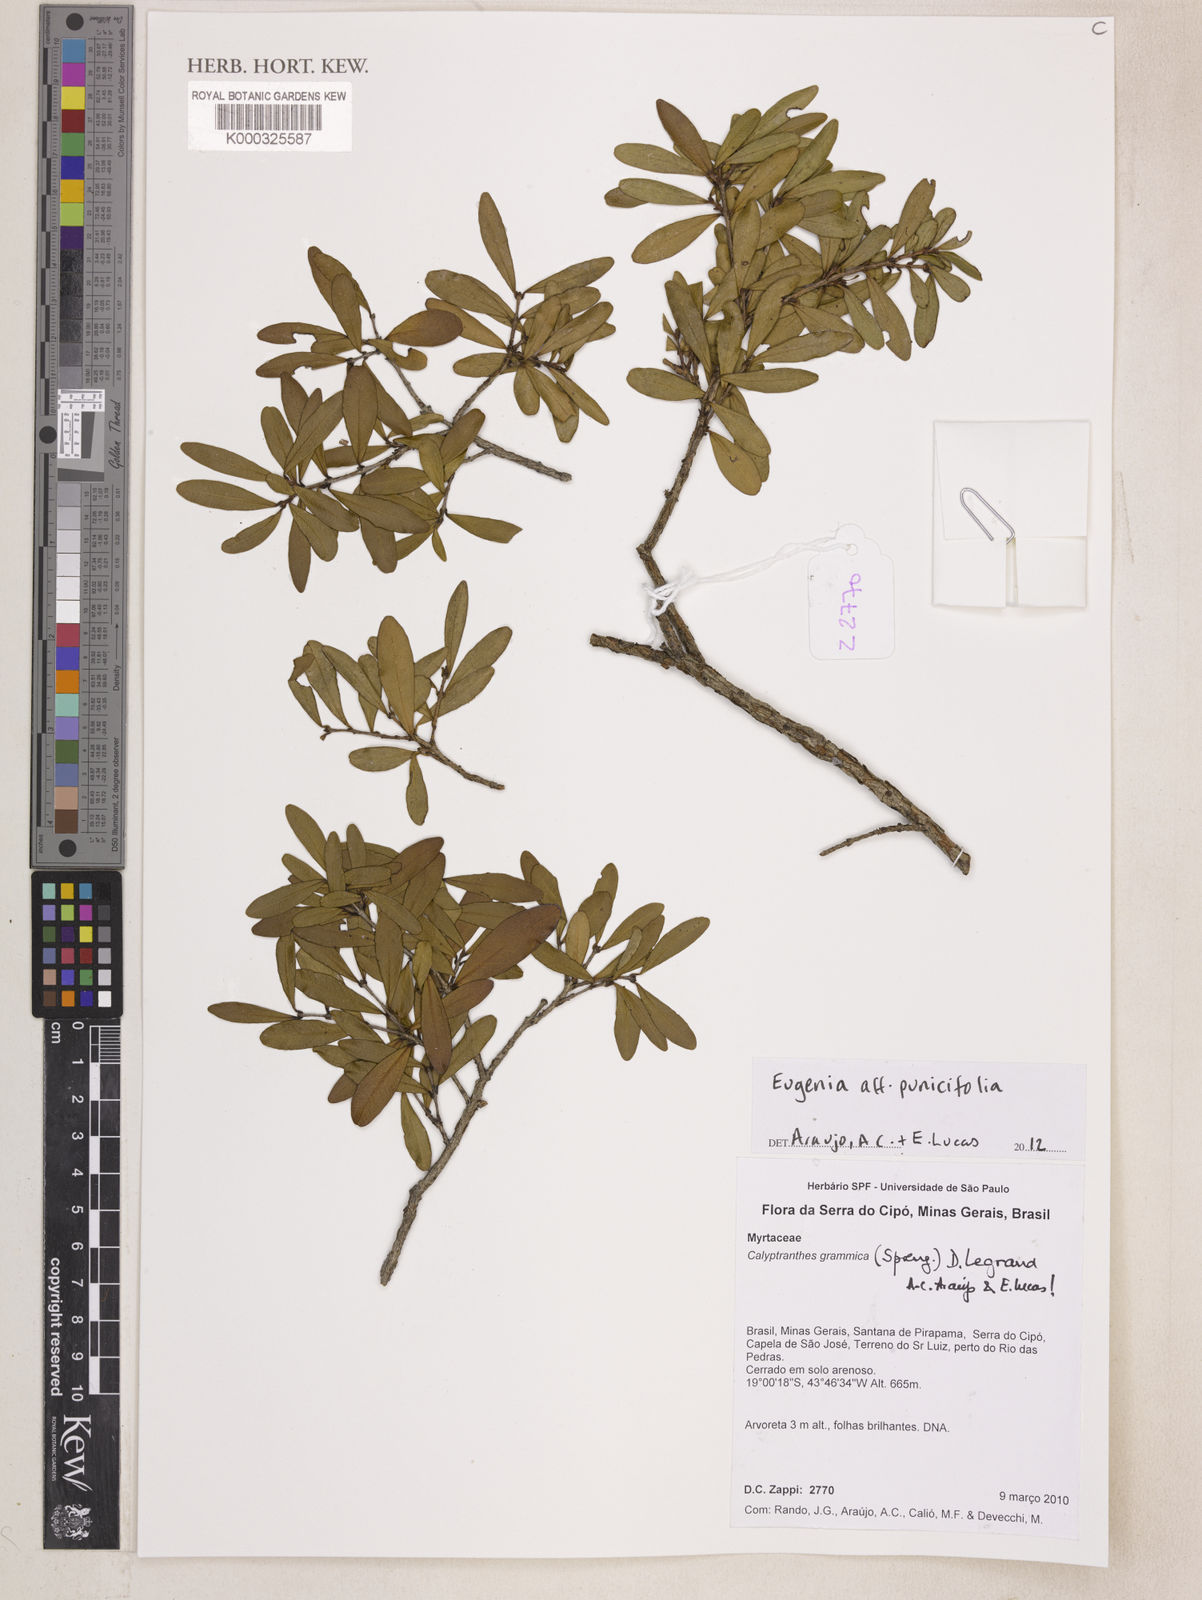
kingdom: Plantae
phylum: Tracheophyta
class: Magnoliopsida
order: Myrtales
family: Myrtaceae
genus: Eugenia
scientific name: Eugenia punicifolia
